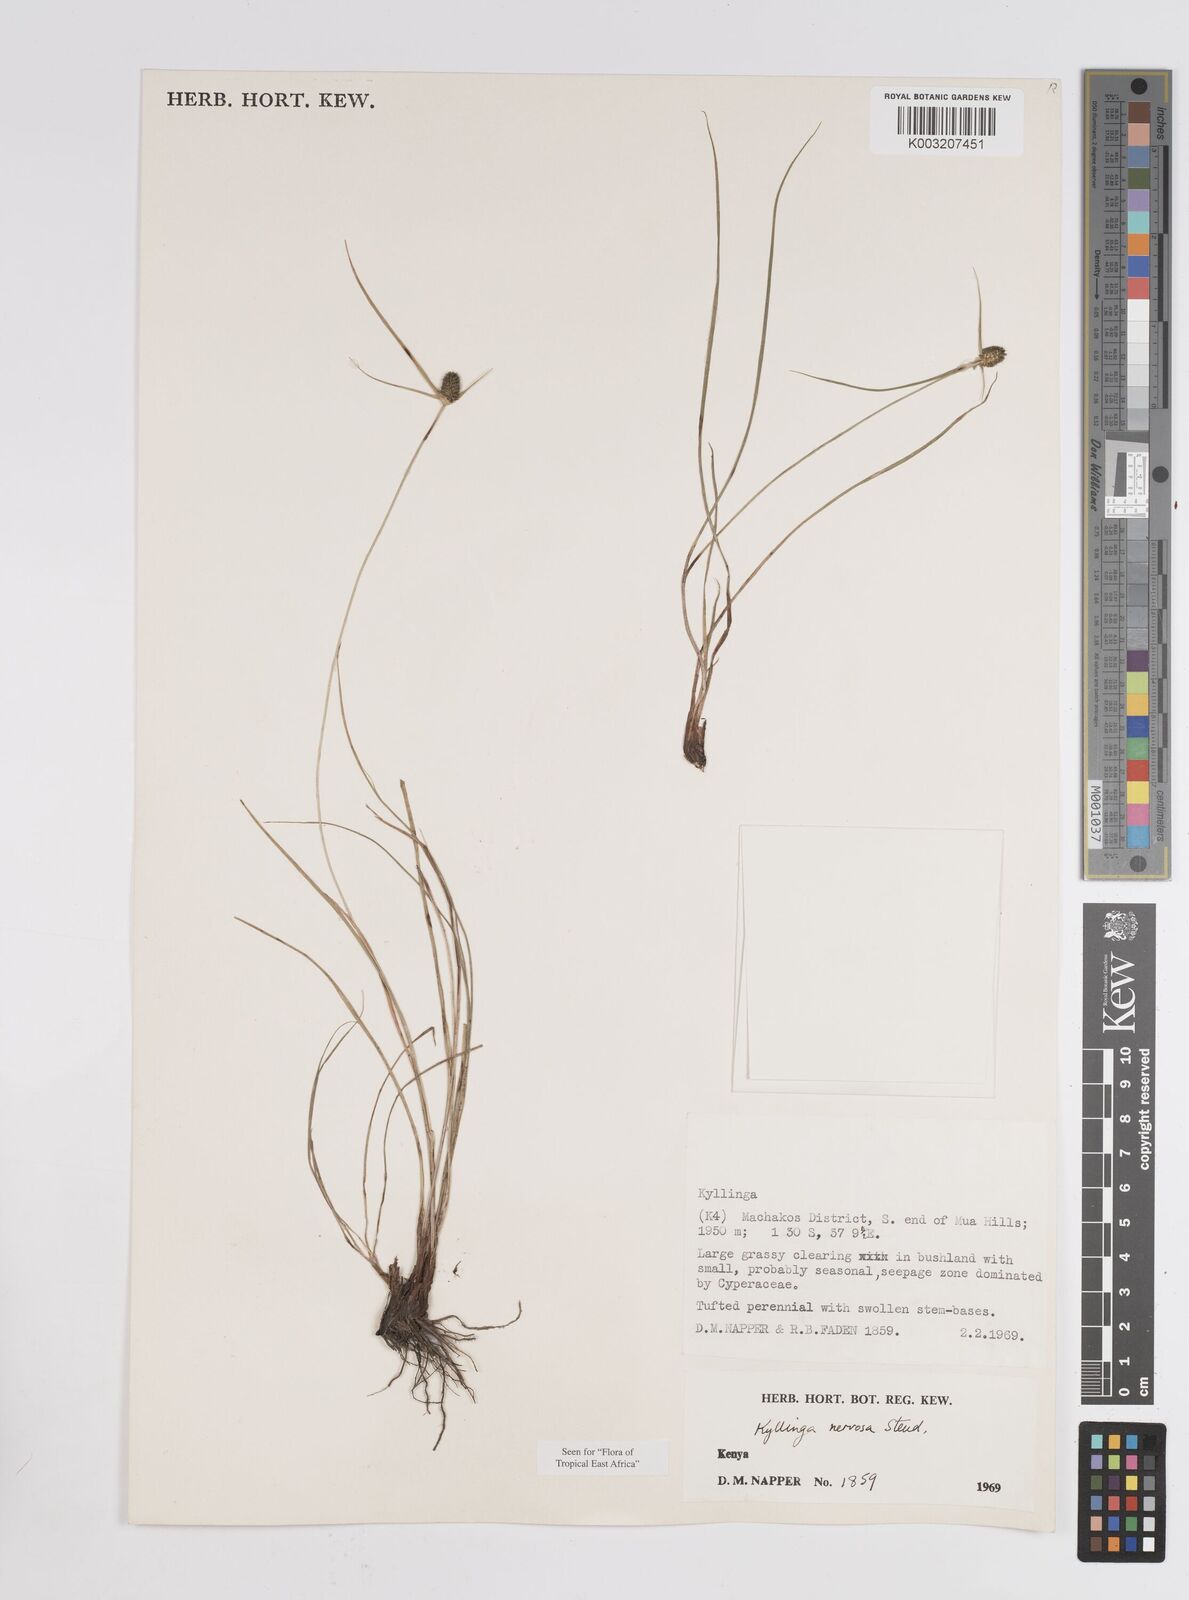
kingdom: Plantae
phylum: Tracheophyta
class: Liliopsida
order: Poales
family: Cyperaceae
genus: Cyperus
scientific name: Cyperus
